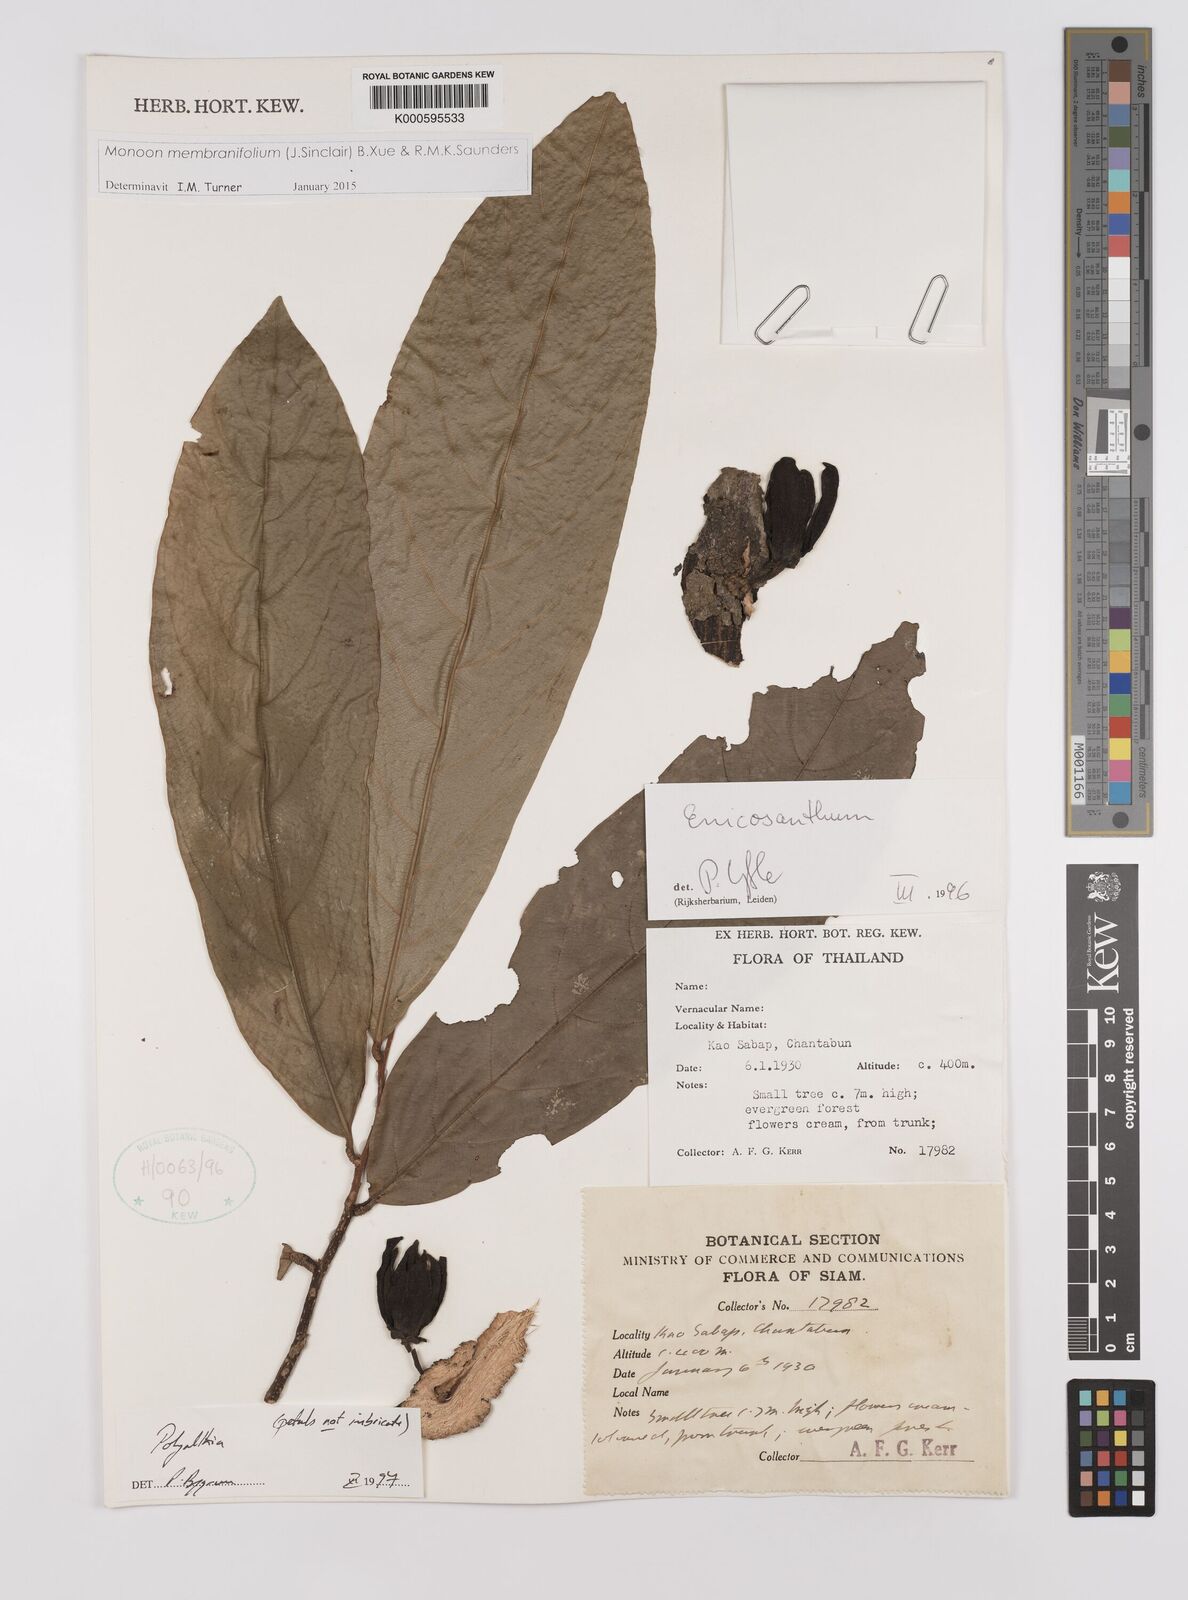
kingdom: Plantae
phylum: Tracheophyta
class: Magnoliopsida
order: Magnoliales
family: Annonaceae
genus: Polyalthia
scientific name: Polyalthia
